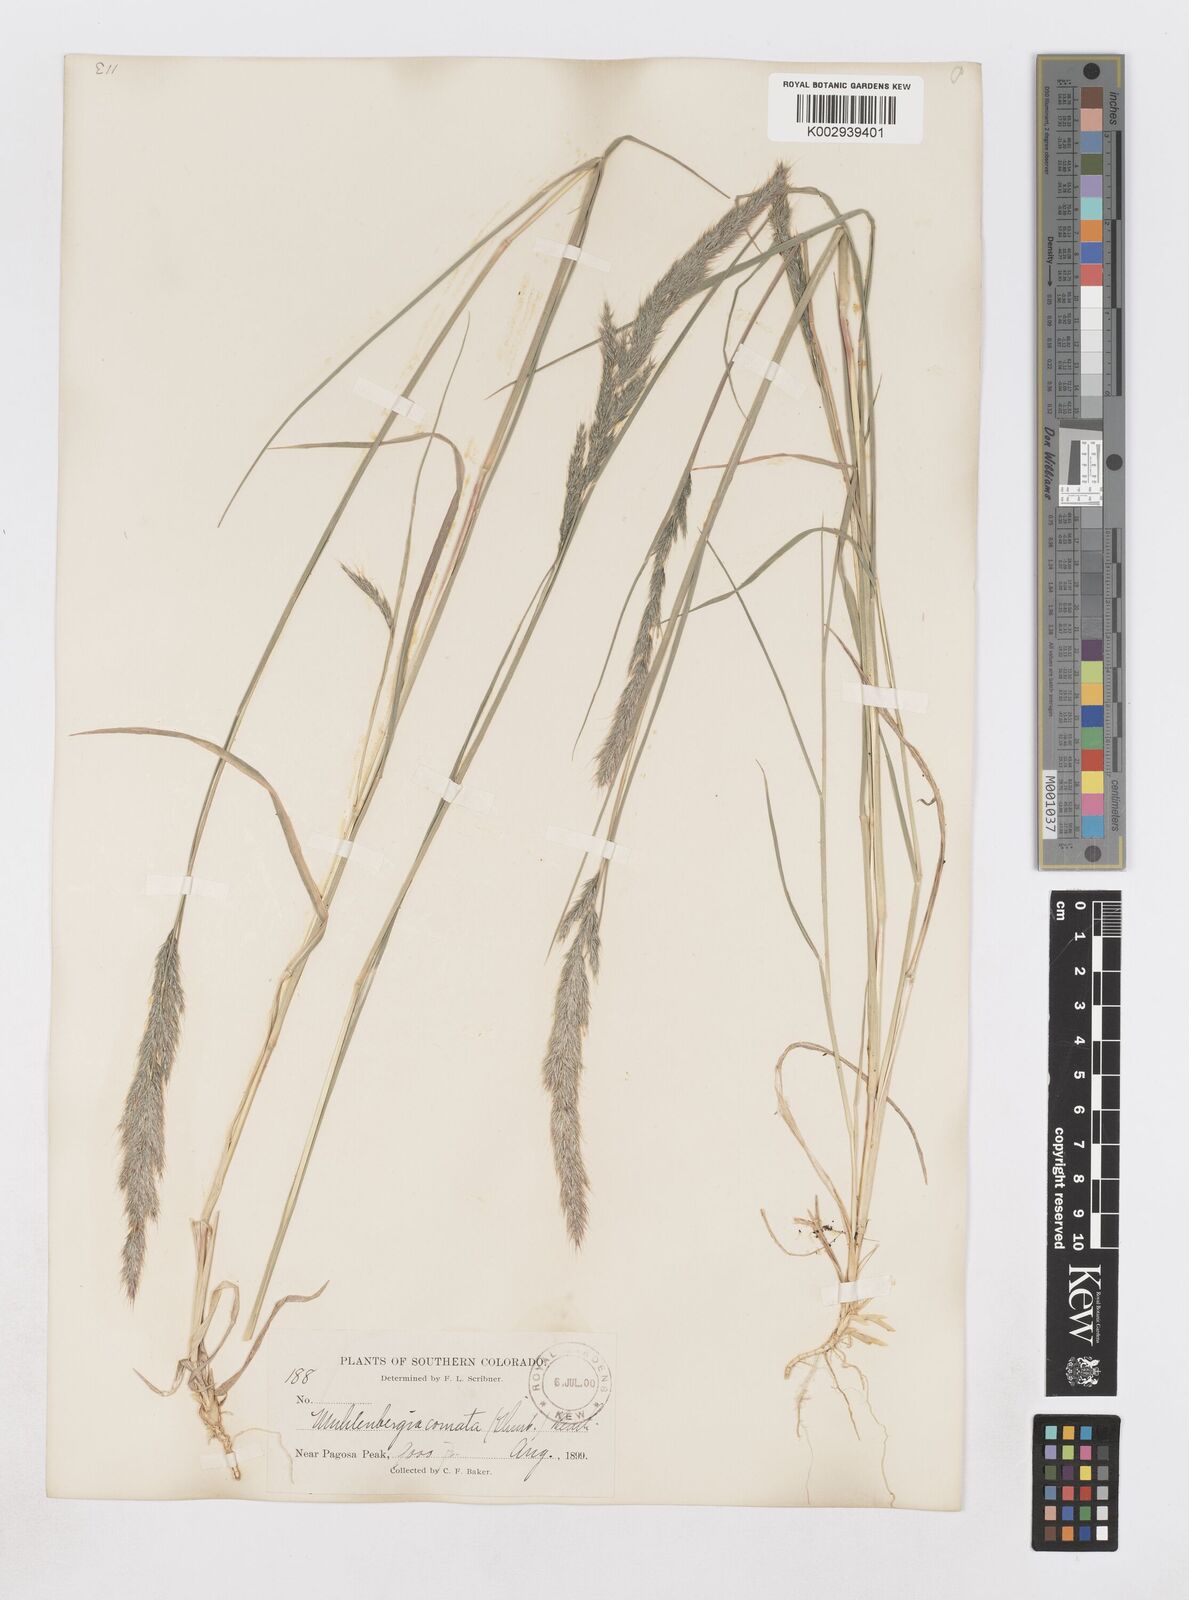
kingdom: Plantae
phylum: Tracheophyta
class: Liliopsida
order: Poales
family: Poaceae
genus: Muhlenbergia
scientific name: Muhlenbergia andina
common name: Foxtail muhly
